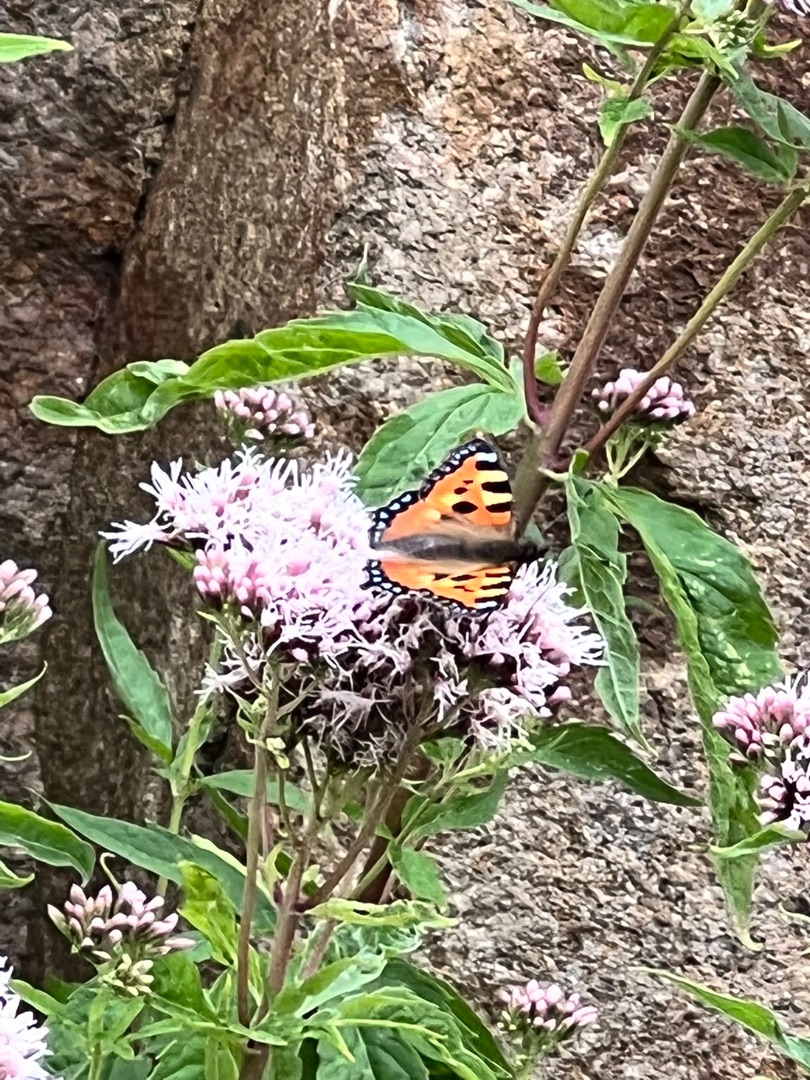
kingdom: Animalia
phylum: Arthropoda
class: Insecta
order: Lepidoptera
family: Nymphalidae
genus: Aglais
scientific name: Aglais urticae
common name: Nældens takvinge
